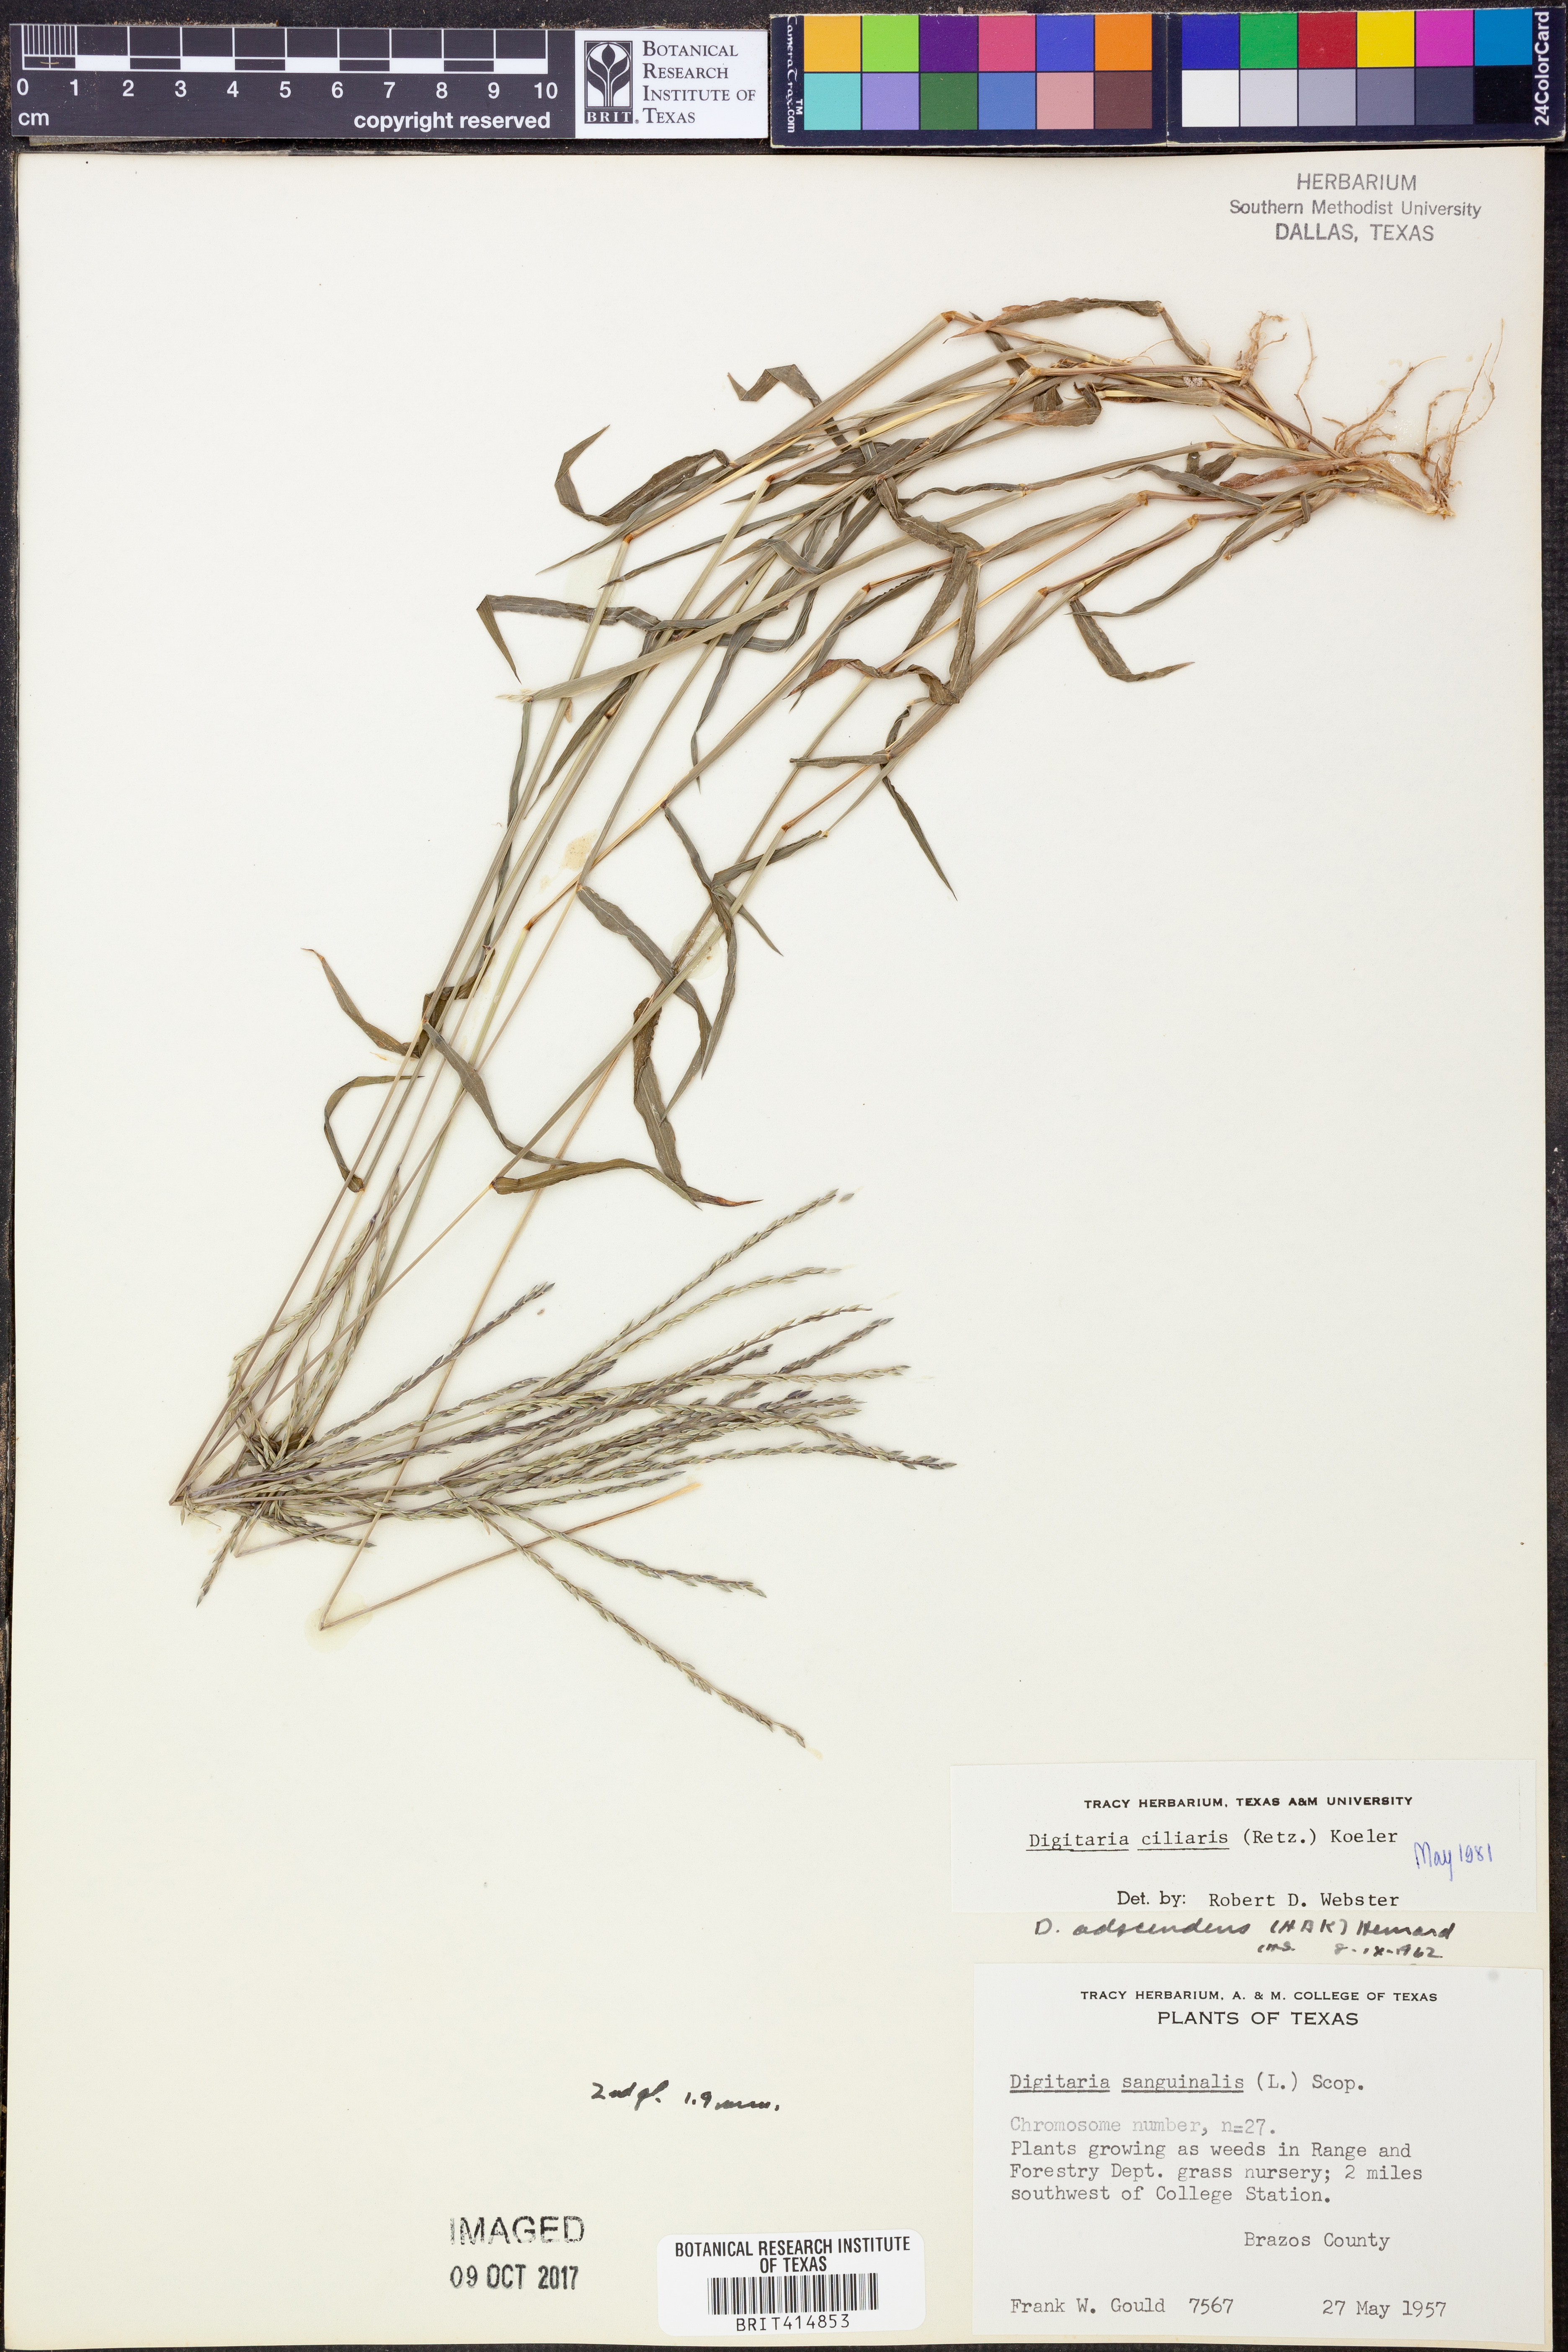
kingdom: Plantae
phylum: Tracheophyta
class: Liliopsida
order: Poales
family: Poaceae
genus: Digitaria
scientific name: Digitaria ciliaris
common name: Tropical finger-grass
